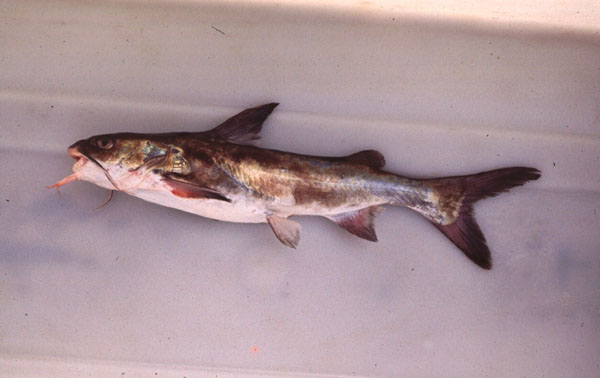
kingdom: Animalia
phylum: Chordata
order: Siluriformes
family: Ariidae
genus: Galeichthys
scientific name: Galeichthys feliceps
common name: White seacatfish
